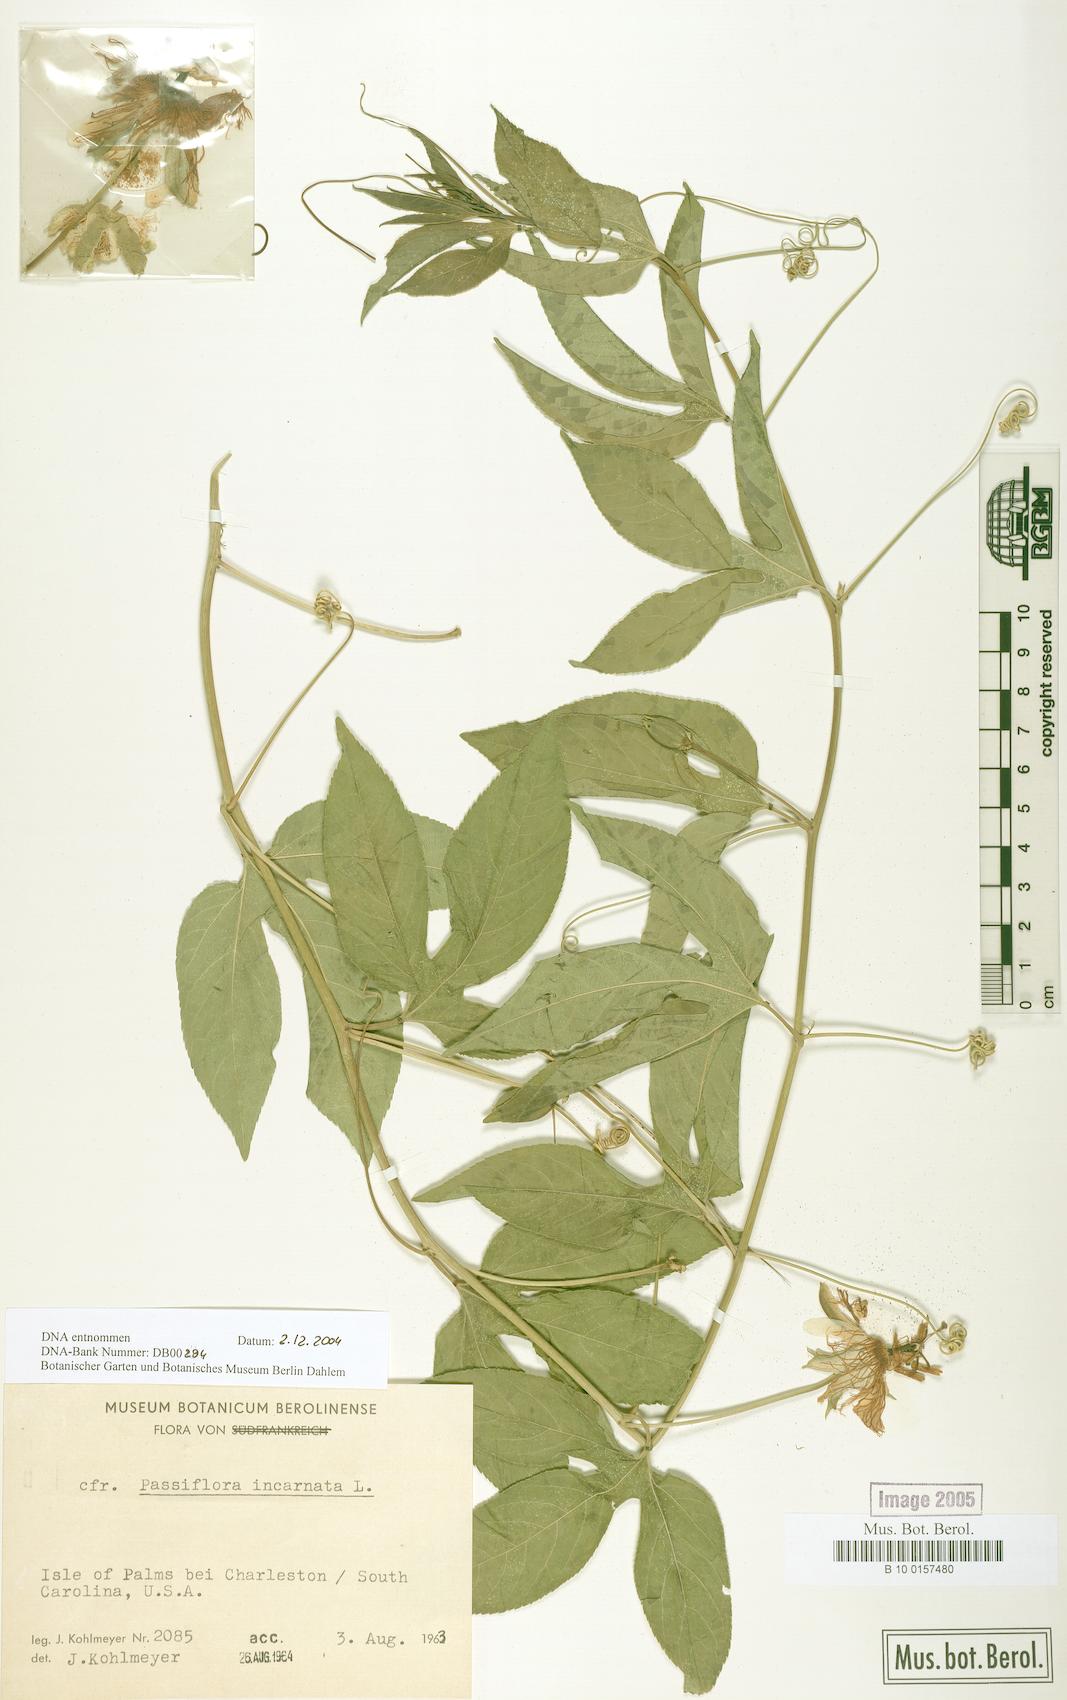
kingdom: Plantae
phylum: Tracheophyta
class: Magnoliopsida
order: Malpighiales
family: Passifloraceae
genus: Passiflora
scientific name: Passiflora incarnata
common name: Apricot-vine
